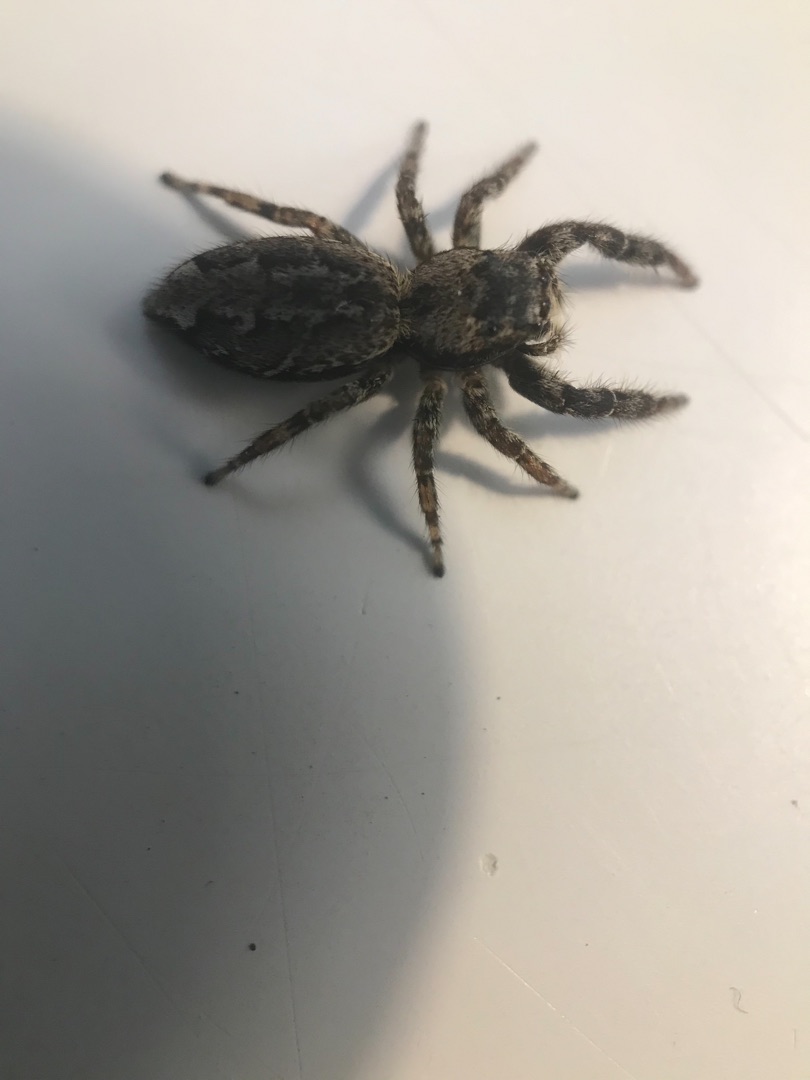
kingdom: Animalia
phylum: Arthropoda
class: Arachnida
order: Araneae
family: Salticidae
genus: Marpissa
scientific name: Marpissa muscosa
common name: Stor springedderkop
